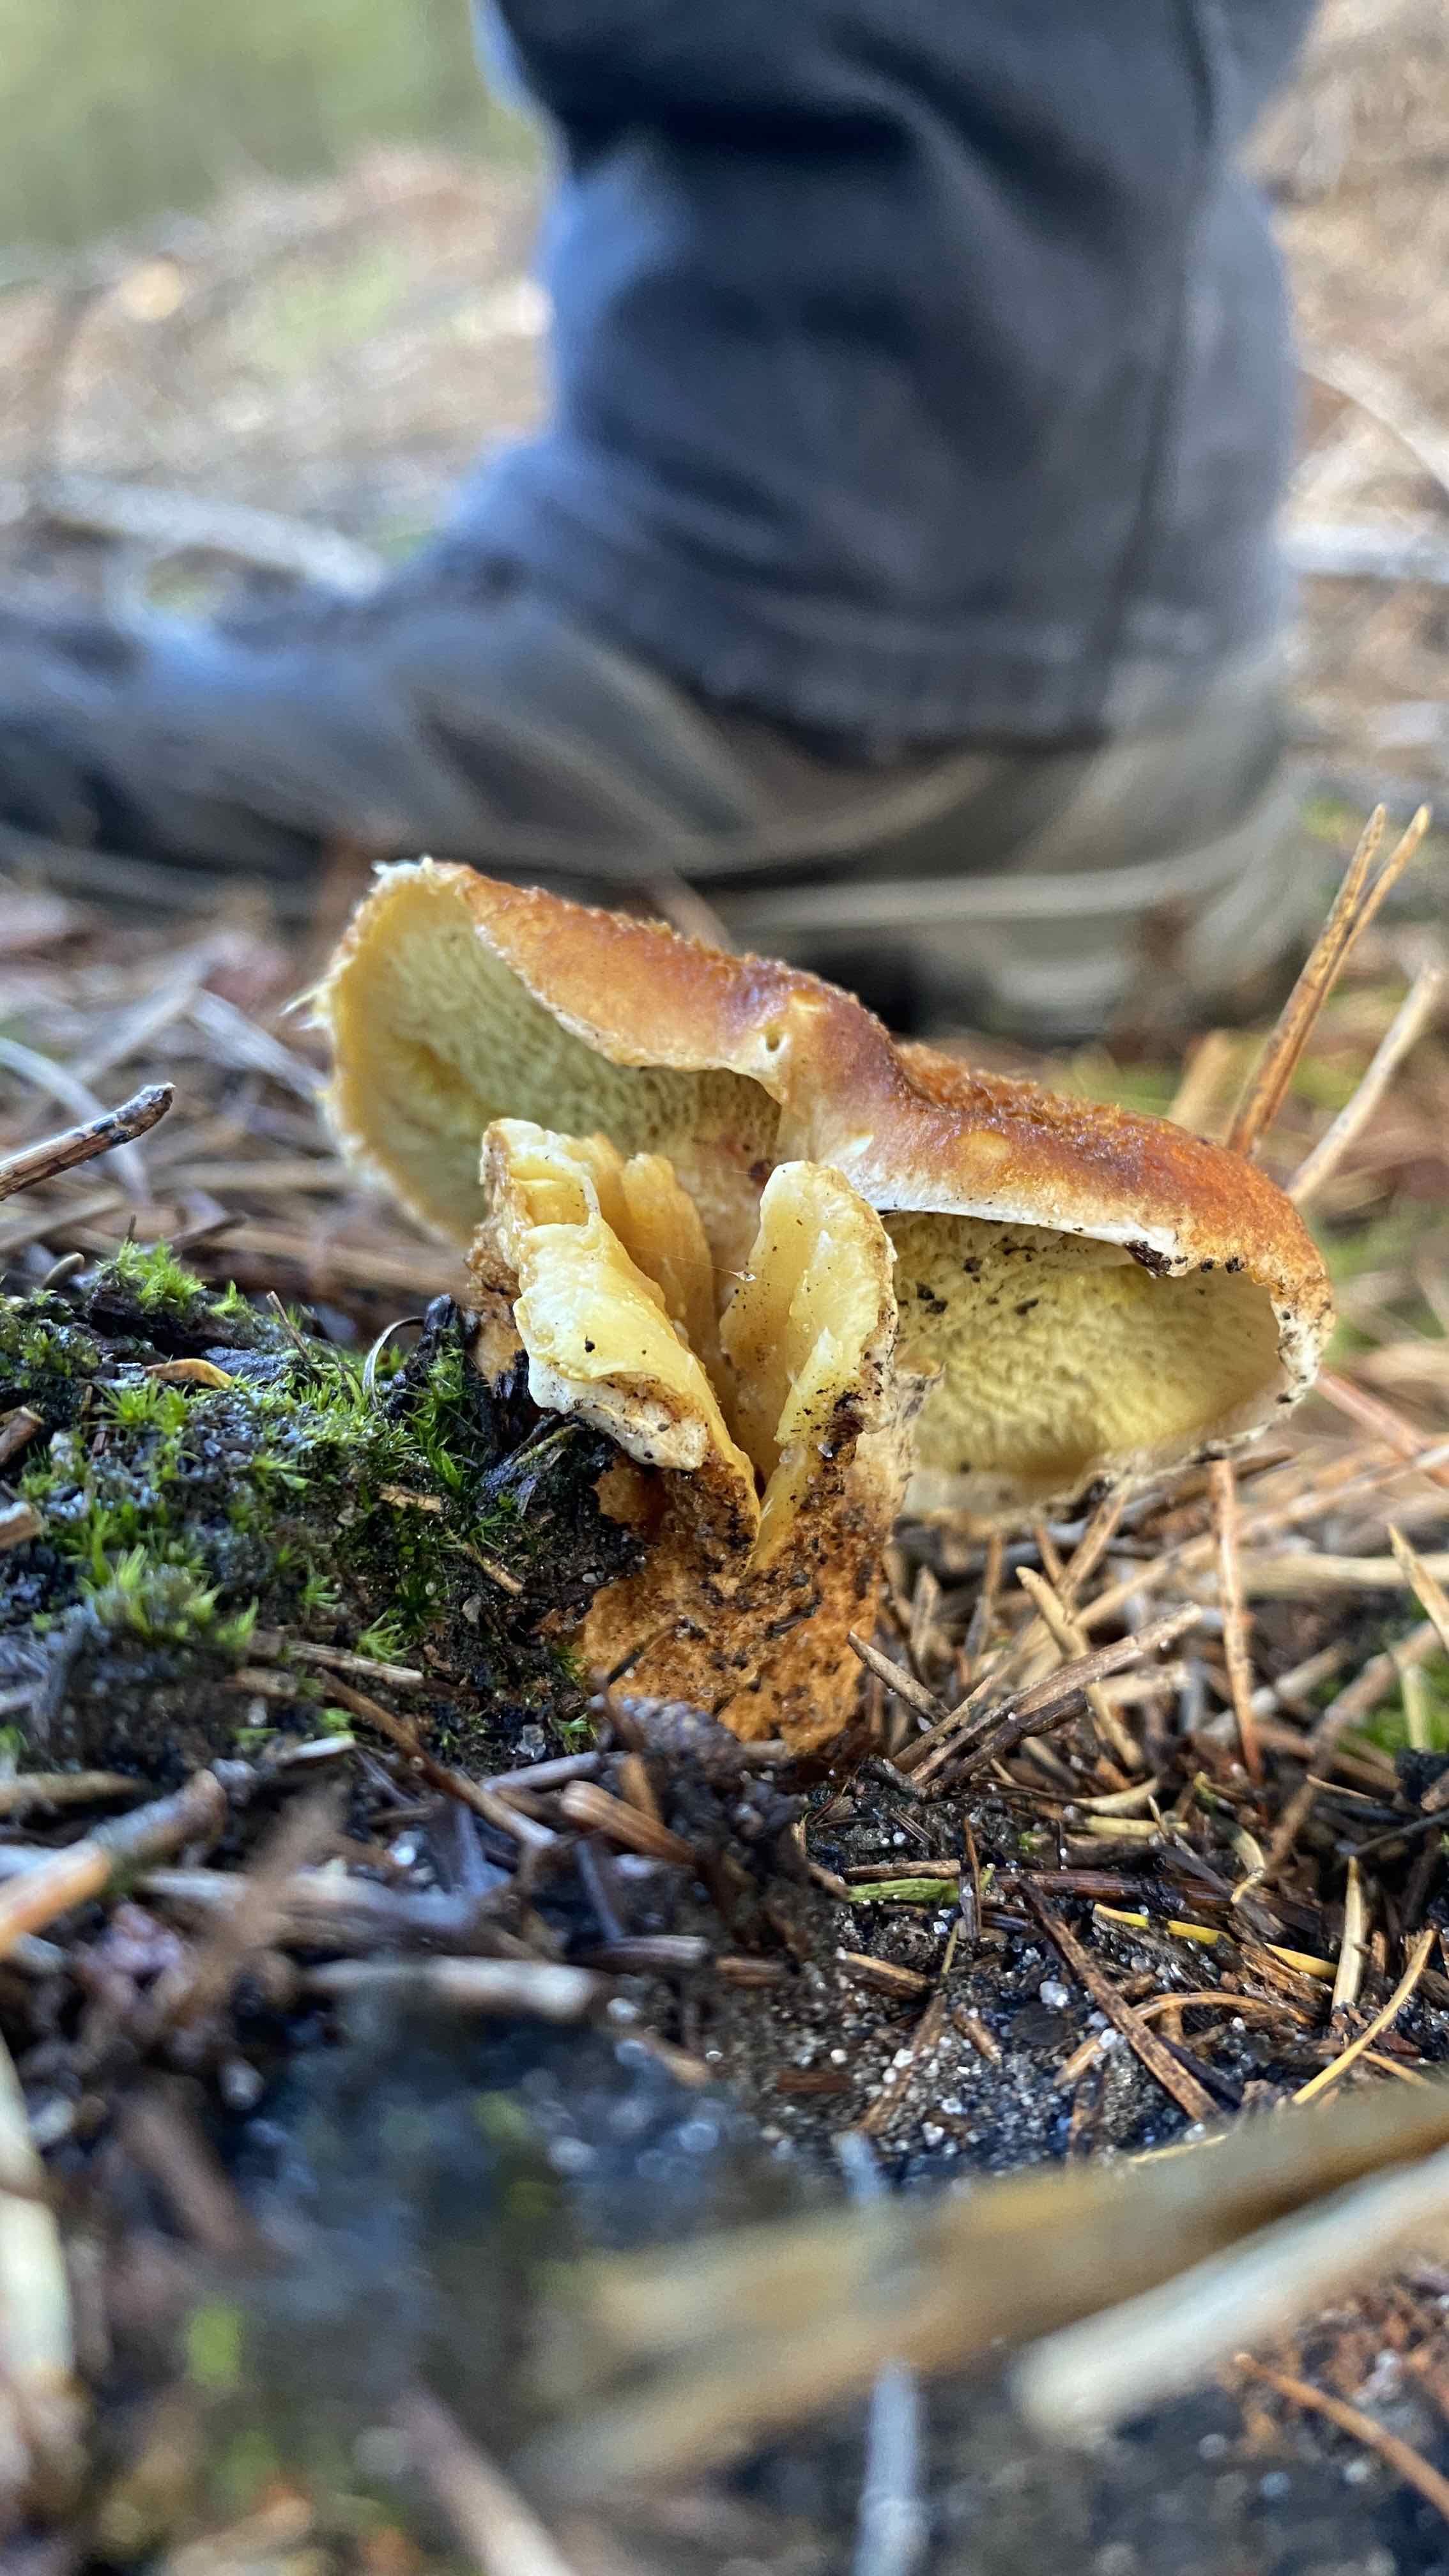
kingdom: Fungi
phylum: Basidiomycota
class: Agaricomycetes
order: Boletales
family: Suillaceae
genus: Suillus
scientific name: Suillus cavipes
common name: hulstokket slimrørhat
